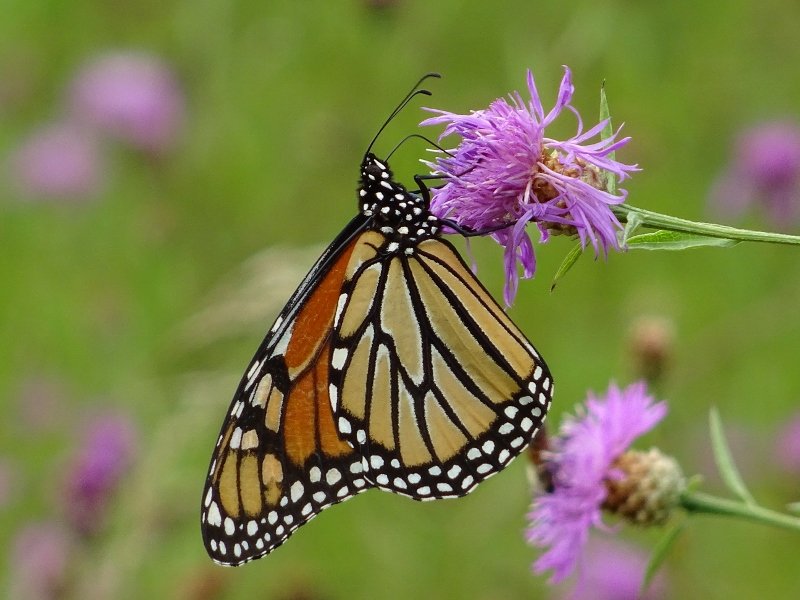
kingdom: Animalia
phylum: Arthropoda
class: Insecta
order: Lepidoptera
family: Nymphalidae
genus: Danaus
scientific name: Danaus plexippus
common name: Monarch
